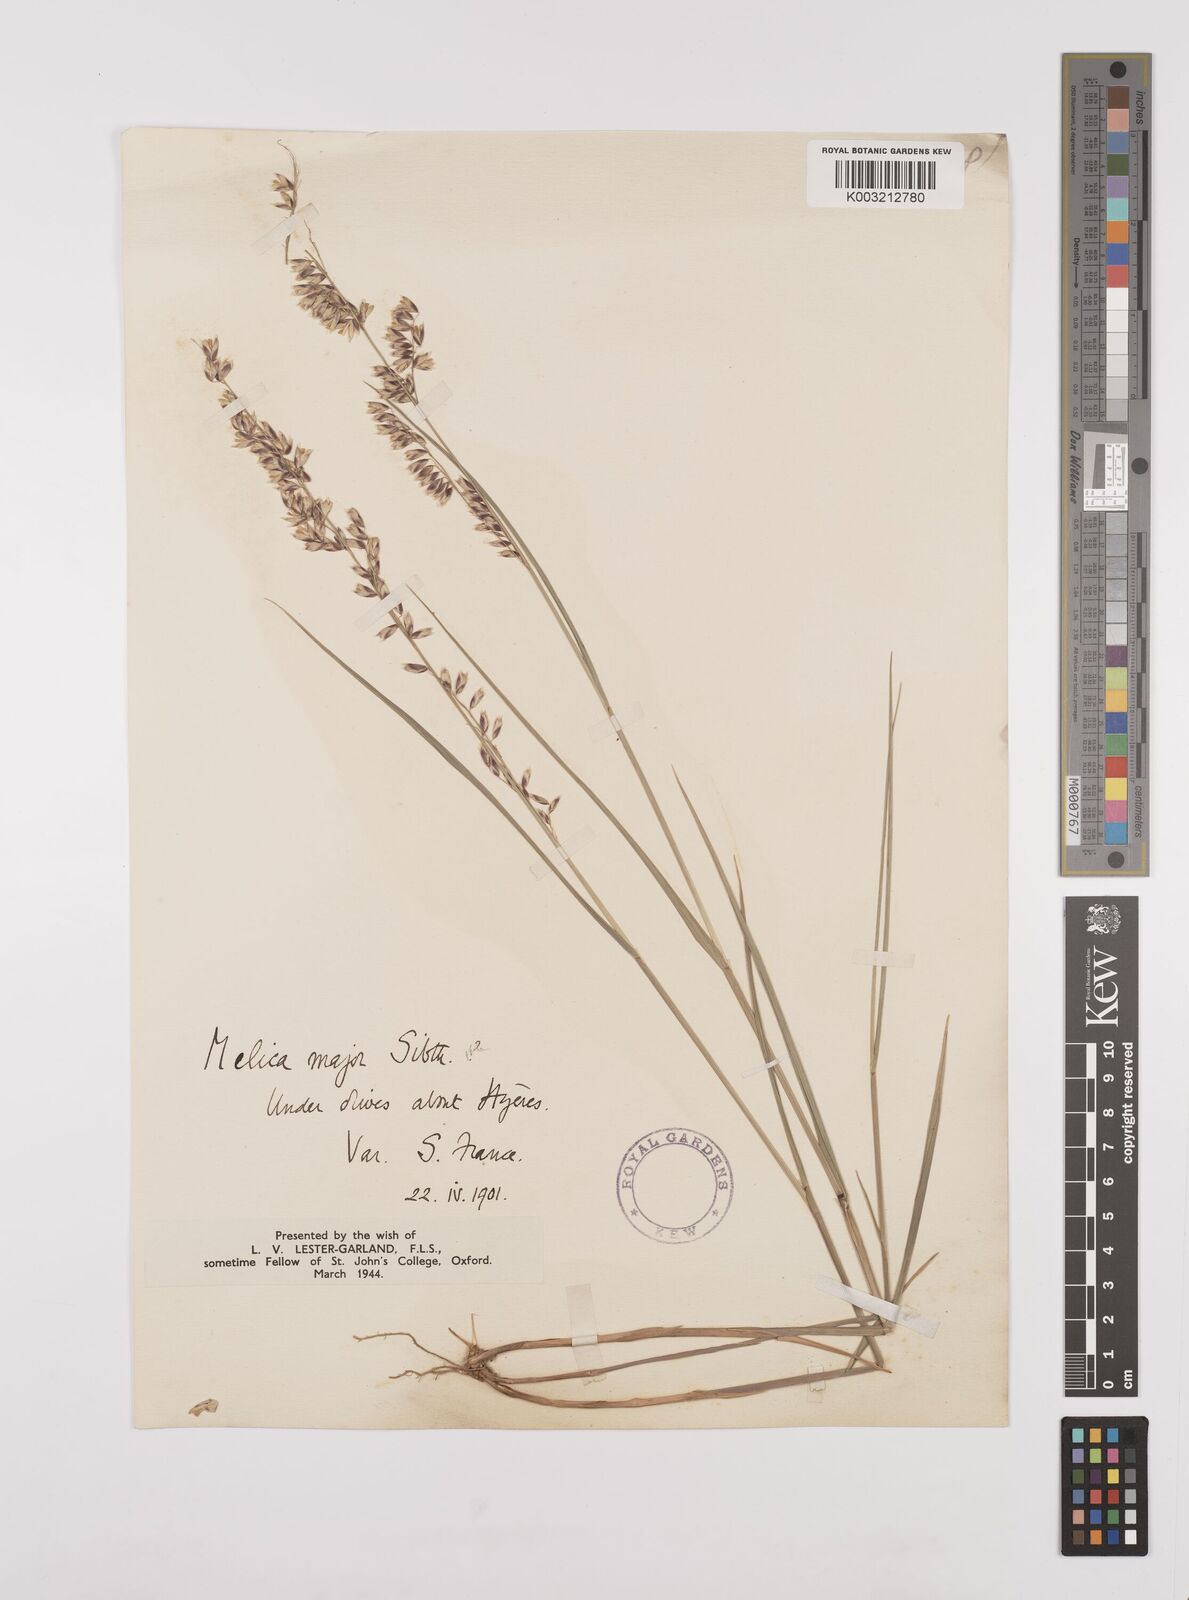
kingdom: Plantae
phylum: Tracheophyta
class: Liliopsida
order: Poales
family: Poaceae
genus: Melica
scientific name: Melica minuta
